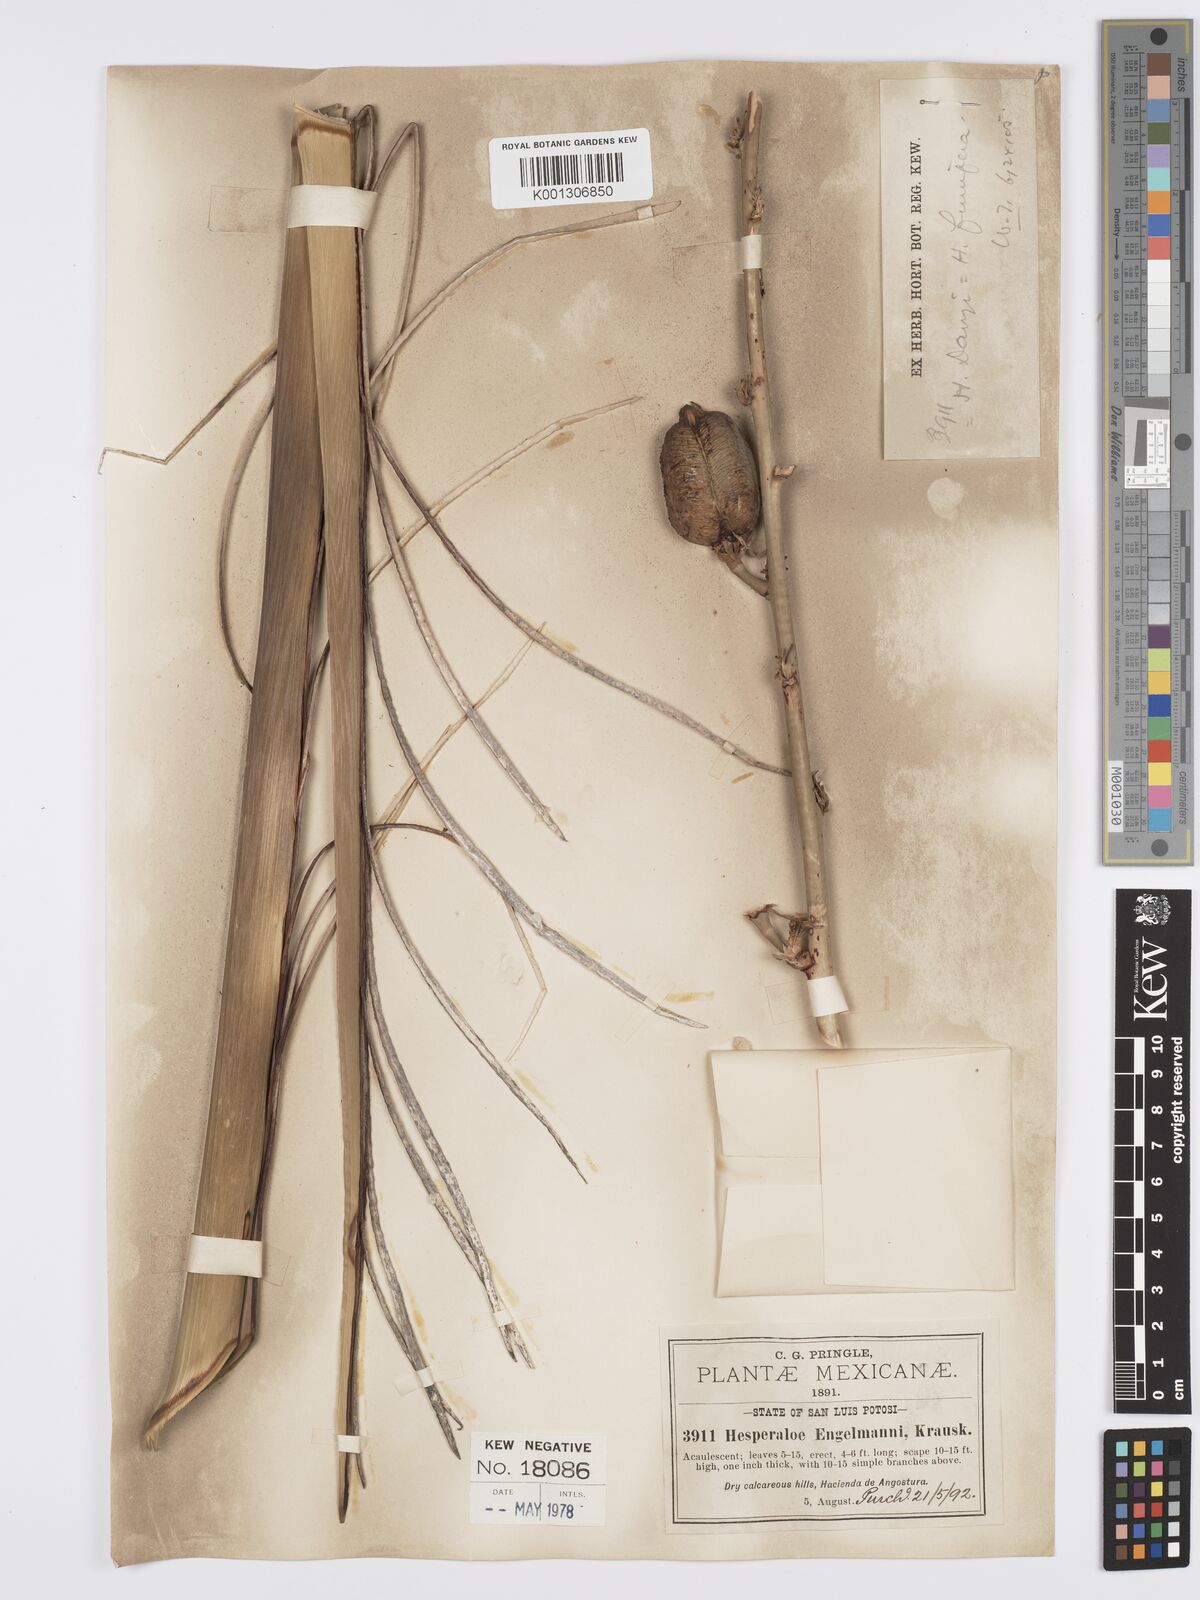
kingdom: Plantae
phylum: Tracheophyta
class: Liliopsida
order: Asparagales
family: Asparagaceae
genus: Hesperaloe
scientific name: Hesperaloe funifera
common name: Giant hesperaloe
